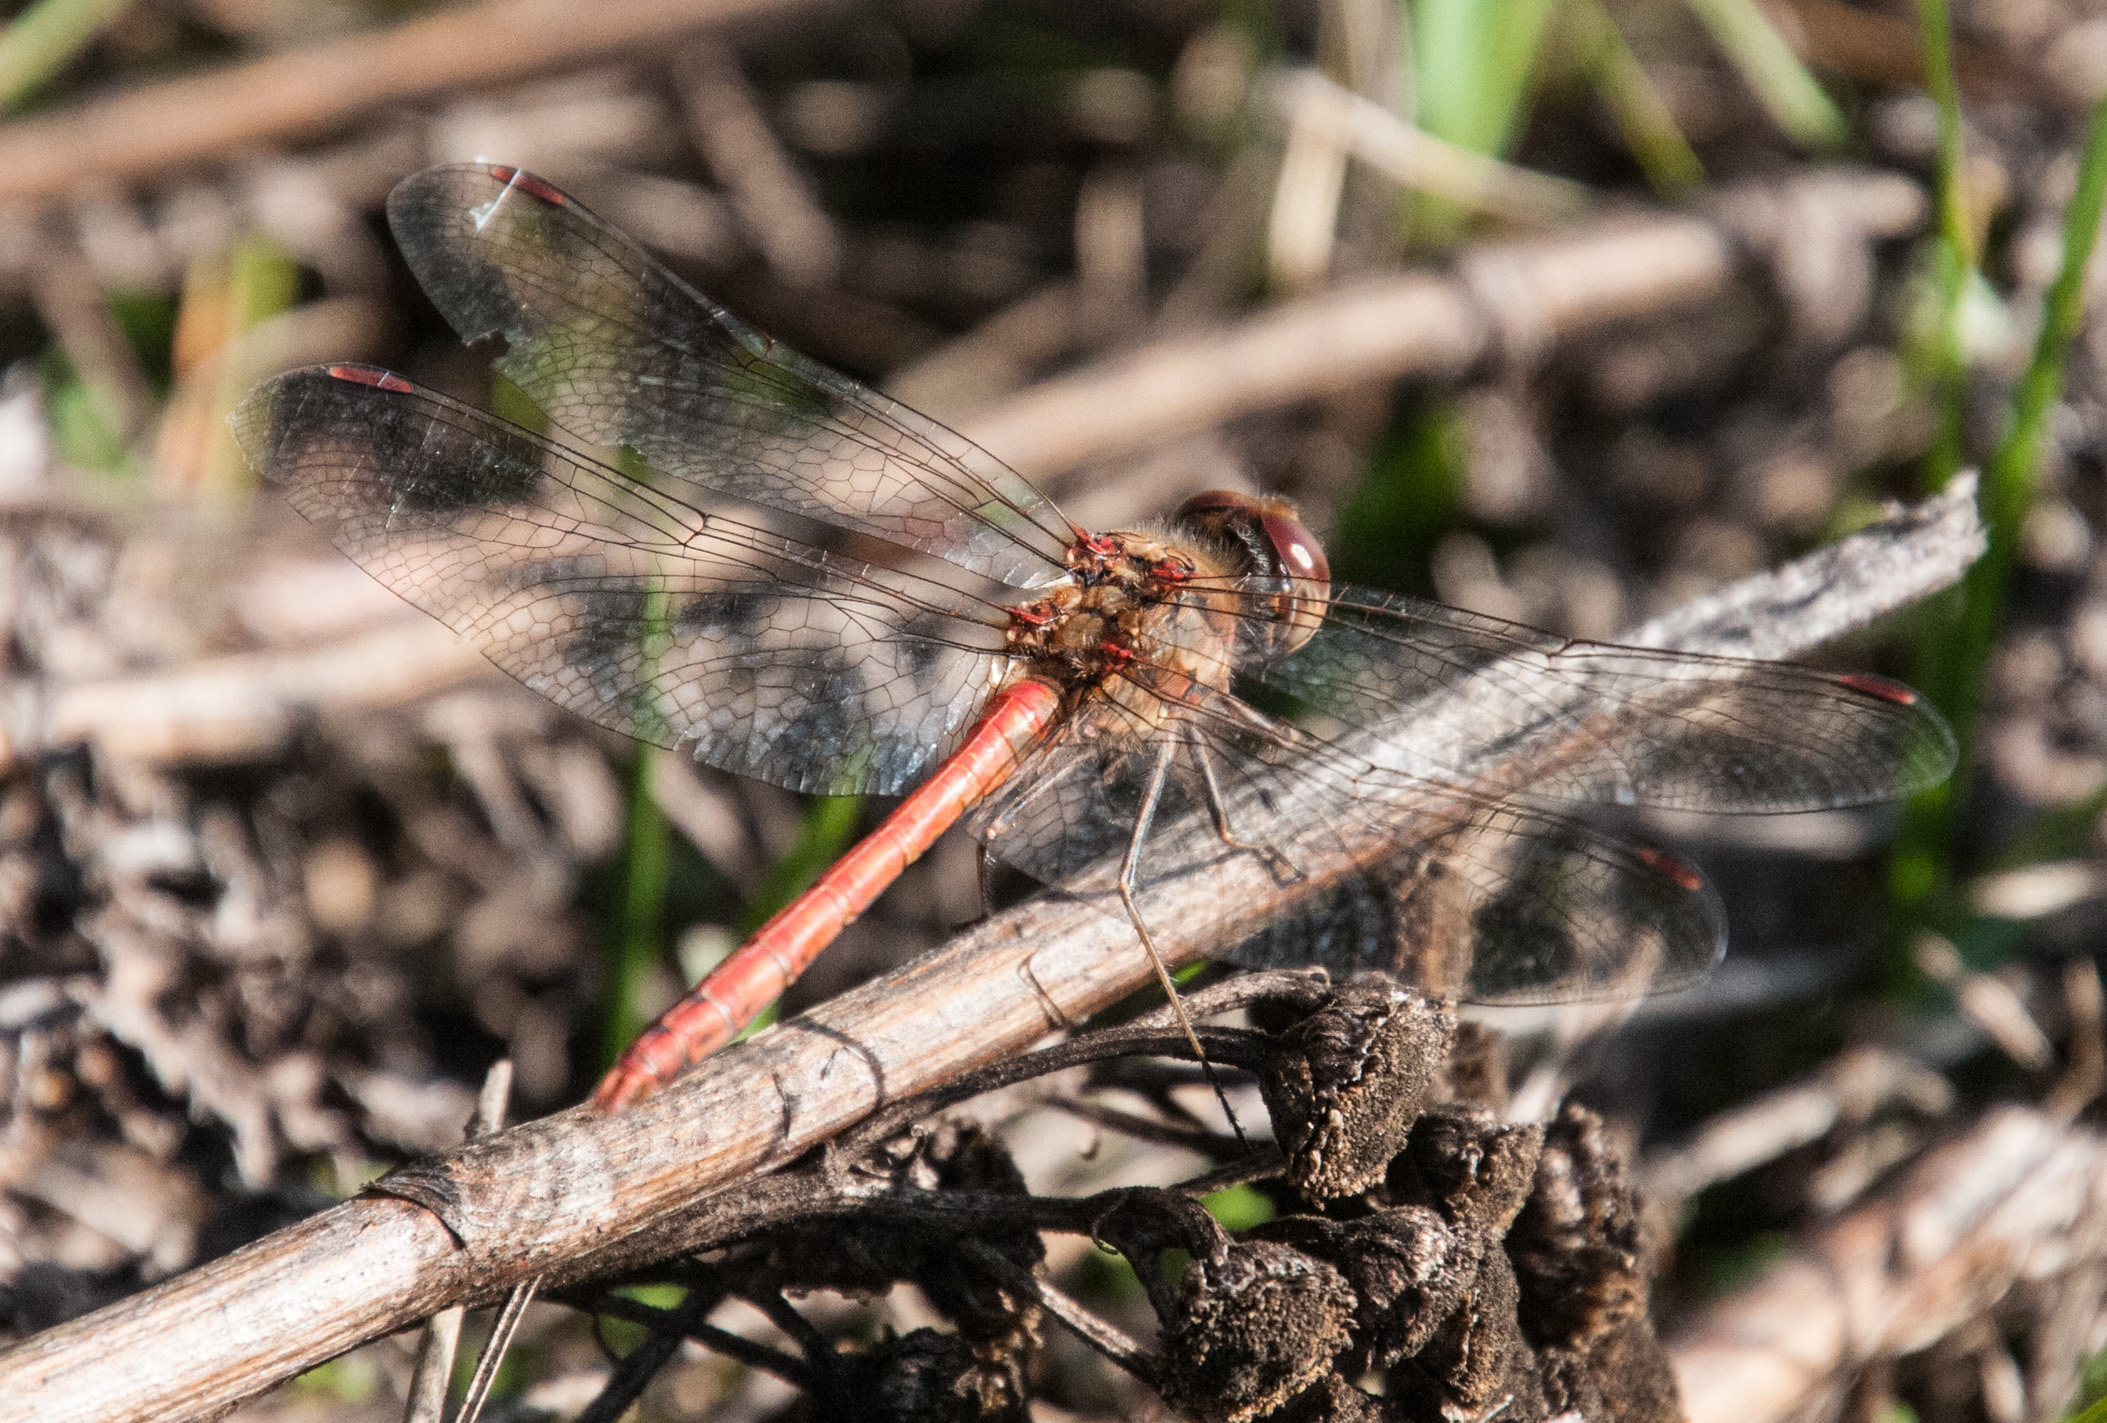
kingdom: Animalia
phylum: Arthropoda
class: Insecta
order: Odonata
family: Libellulidae
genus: Sympetrum
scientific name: Sympetrum striolatum
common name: Common darter
